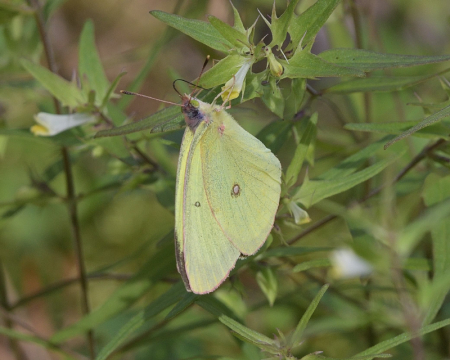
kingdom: Animalia
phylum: Arthropoda
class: Insecta
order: Lepidoptera
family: Pieridae
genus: Colias
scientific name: Colias interior
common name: Pink-edged Sulphur
